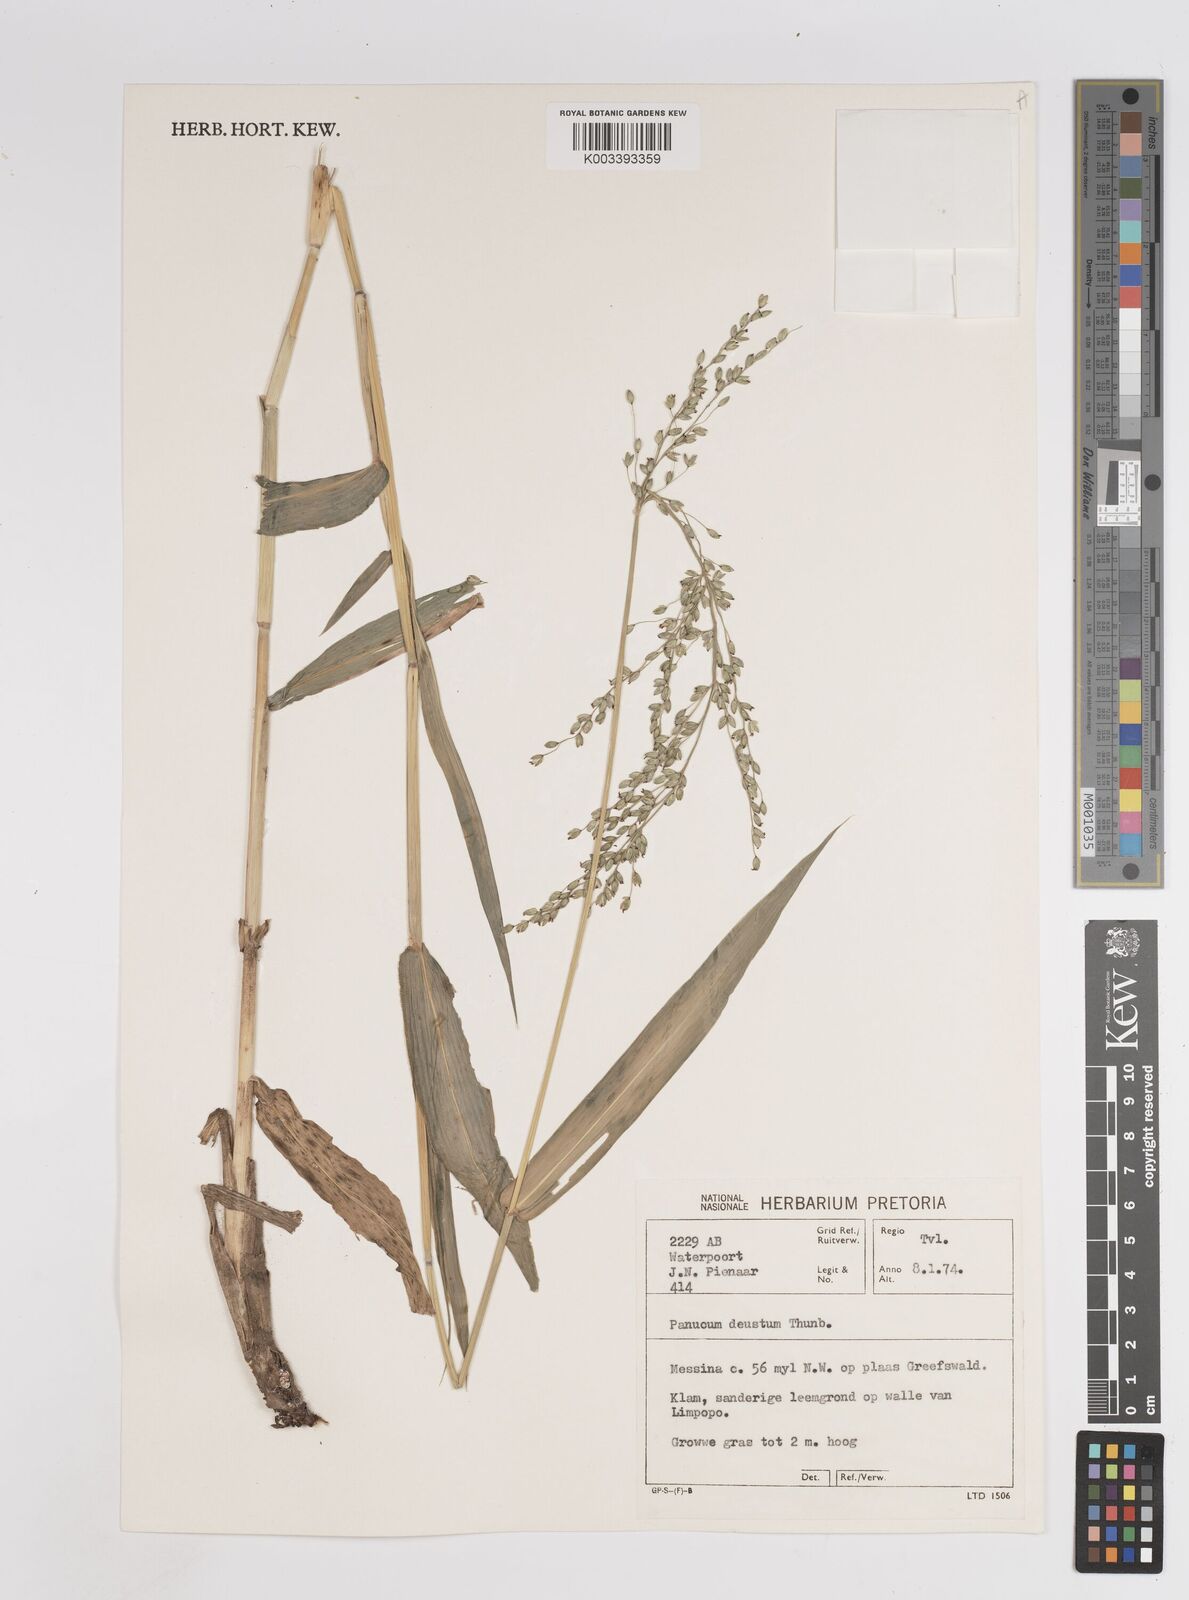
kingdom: Plantae
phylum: Tracheophyta
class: Liliopsida
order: Poales
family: Poaceae
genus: Panicum
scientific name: Panicum deustum
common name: Reed panicum
